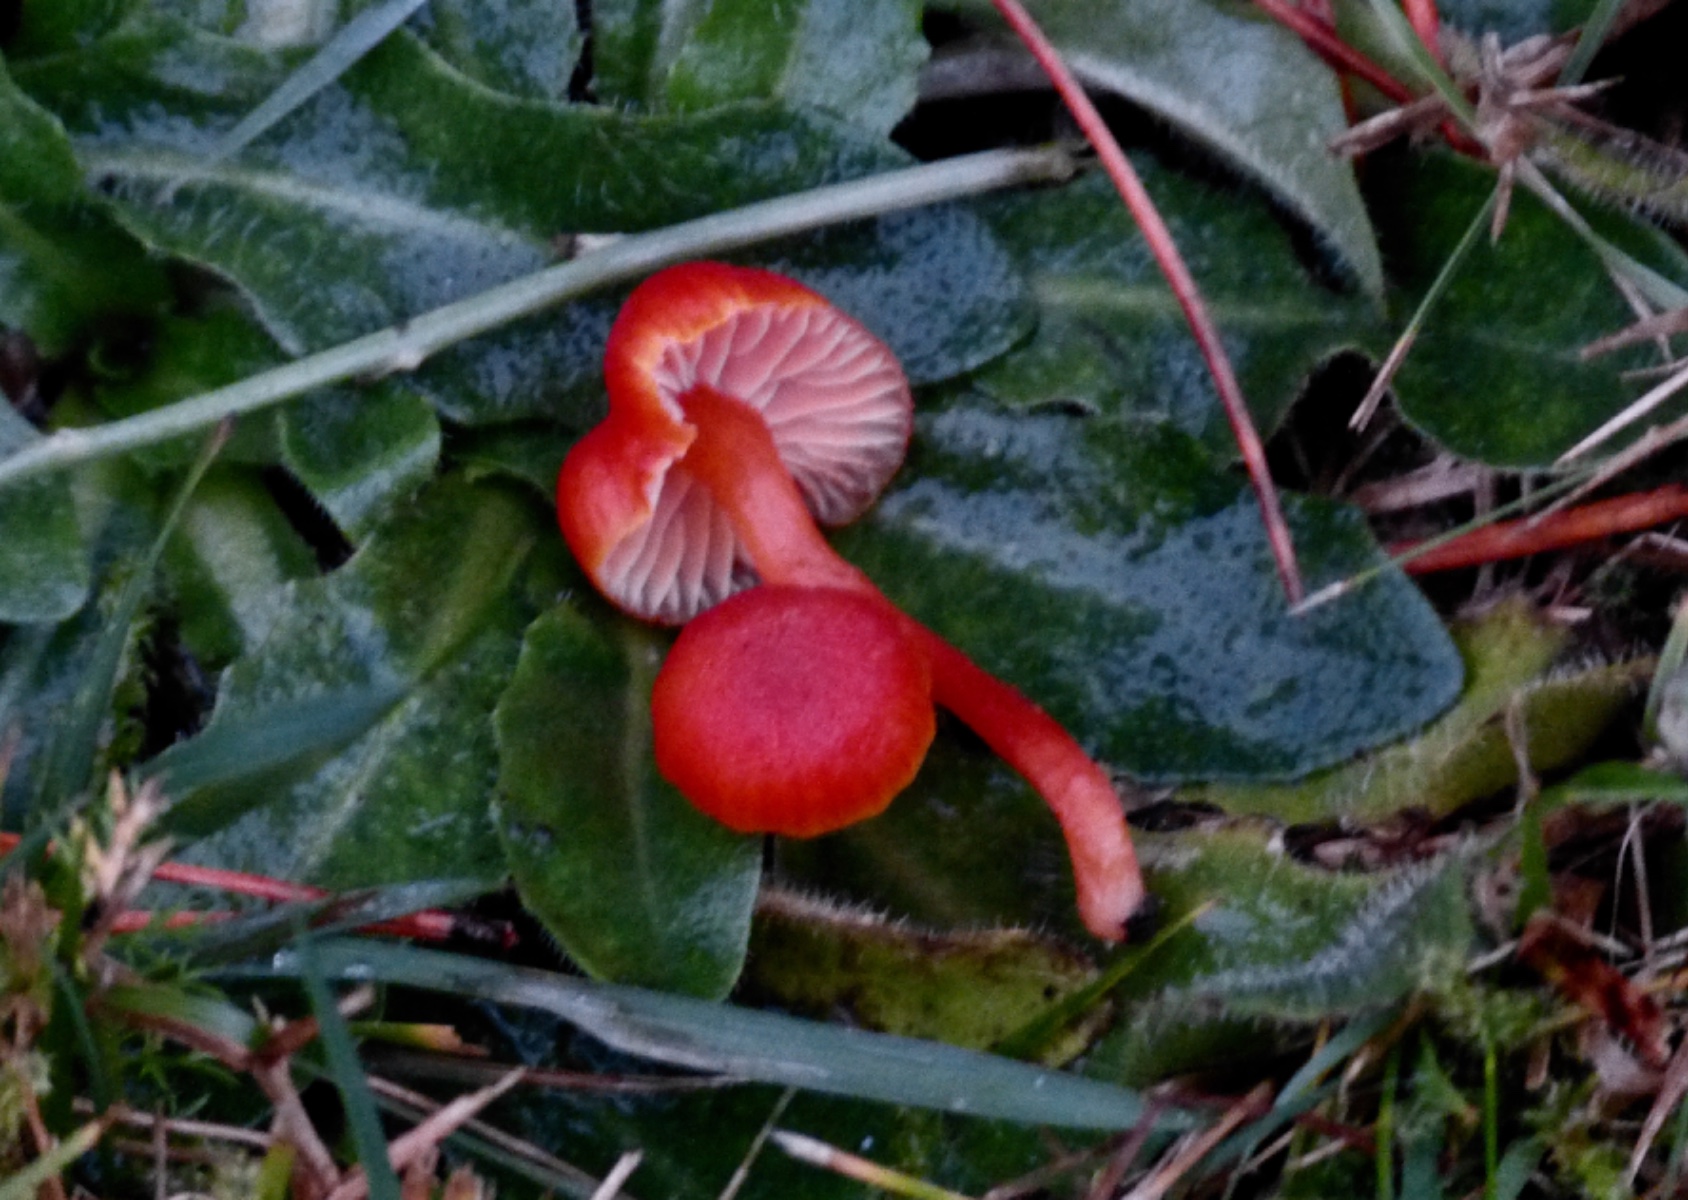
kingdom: Fungi
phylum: Basidiomycota
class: Agaricomycetes
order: Agaricales
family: Hygrophoraceae
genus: Hygrocybe
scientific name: Hygrocybe phaeococcinea
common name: sortdugget vokshat
